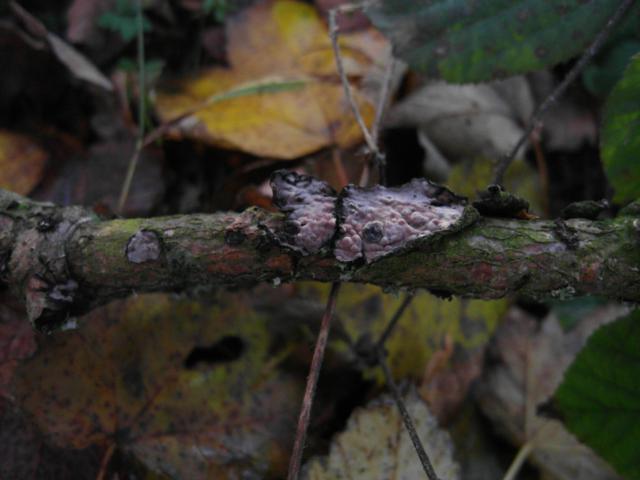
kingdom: Fungi
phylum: Basidiomycota
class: Agaricomycetes
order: Russulales
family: Peniophoraceae
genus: Peniophora
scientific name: Peniophora quercina
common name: ege-voksskind
